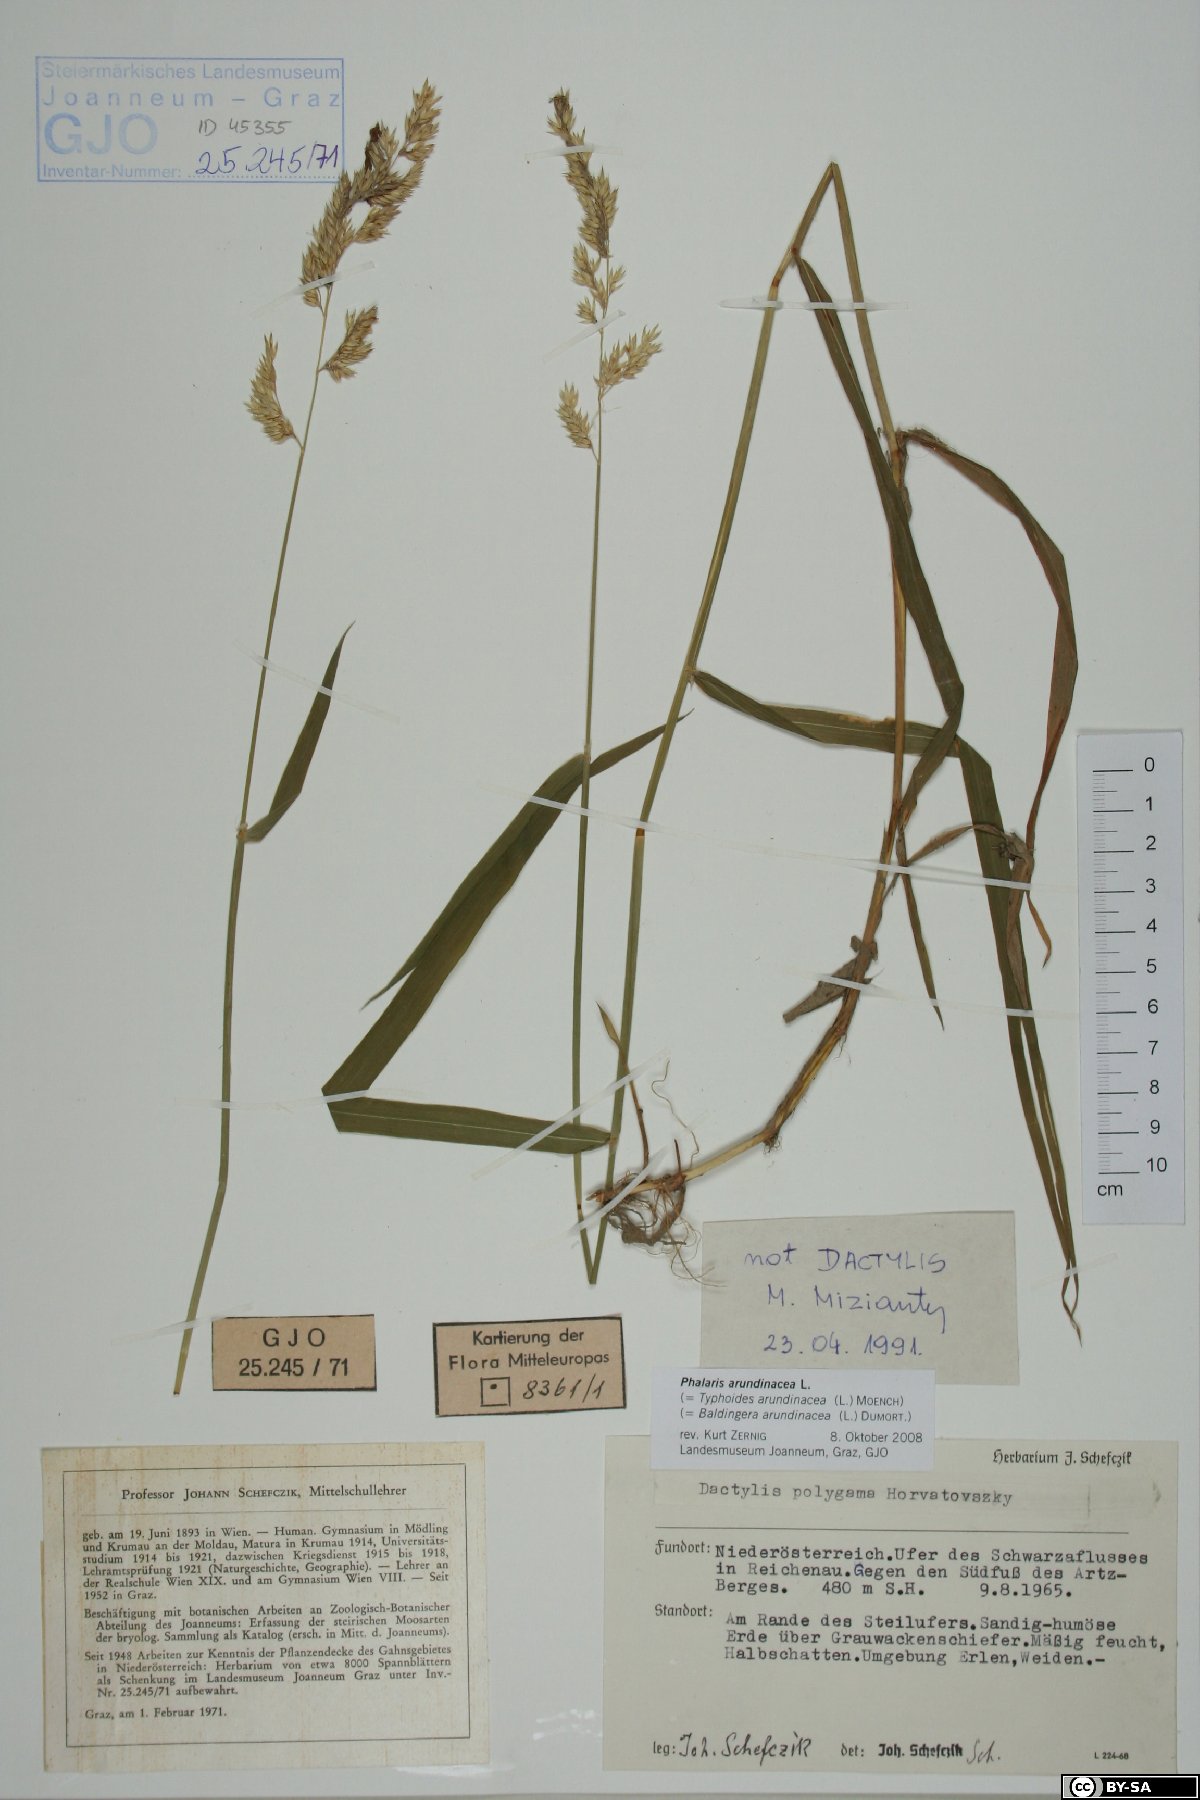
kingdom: Plantae
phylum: Tracheophyta
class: Liliopsida
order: Poales
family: Poaceae
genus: Phalaris
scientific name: Phalaris arundinacea
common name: Reed canary-grass
